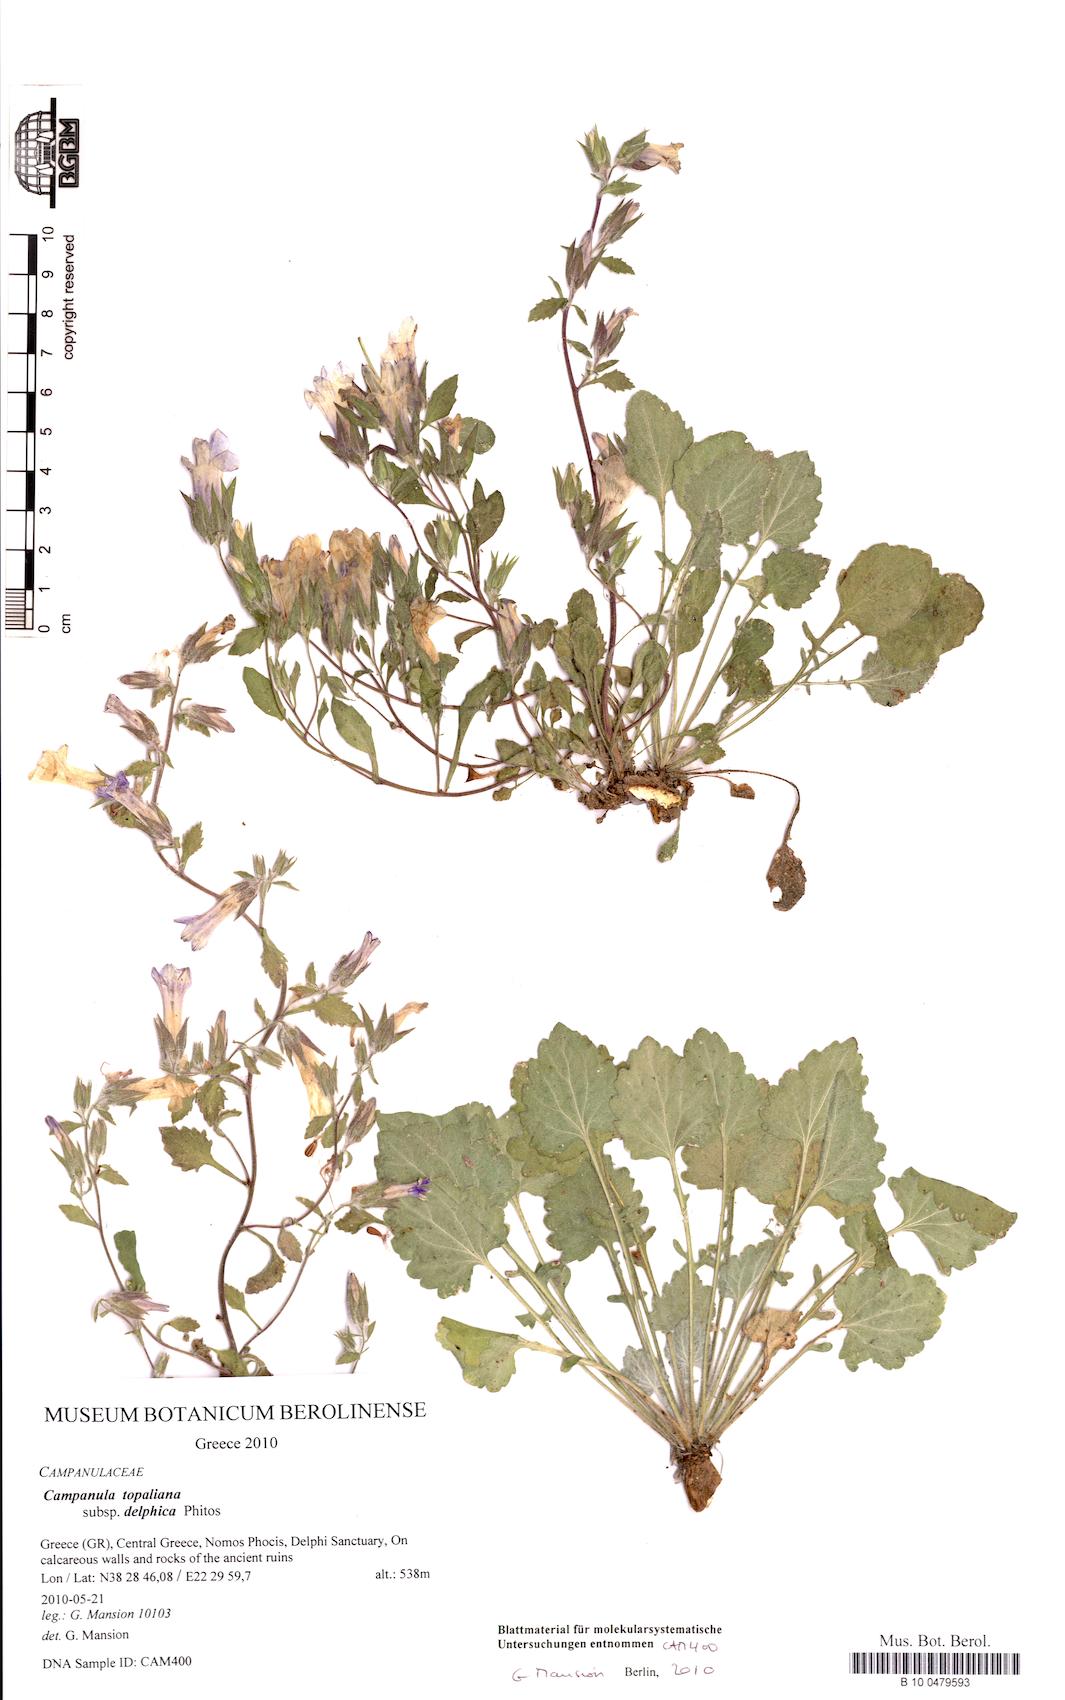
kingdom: Plantae
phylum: Tracheophyta
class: Magnoliopsida
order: Asterales
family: Campanulaceae
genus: Campanula
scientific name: Campanula topaliana
